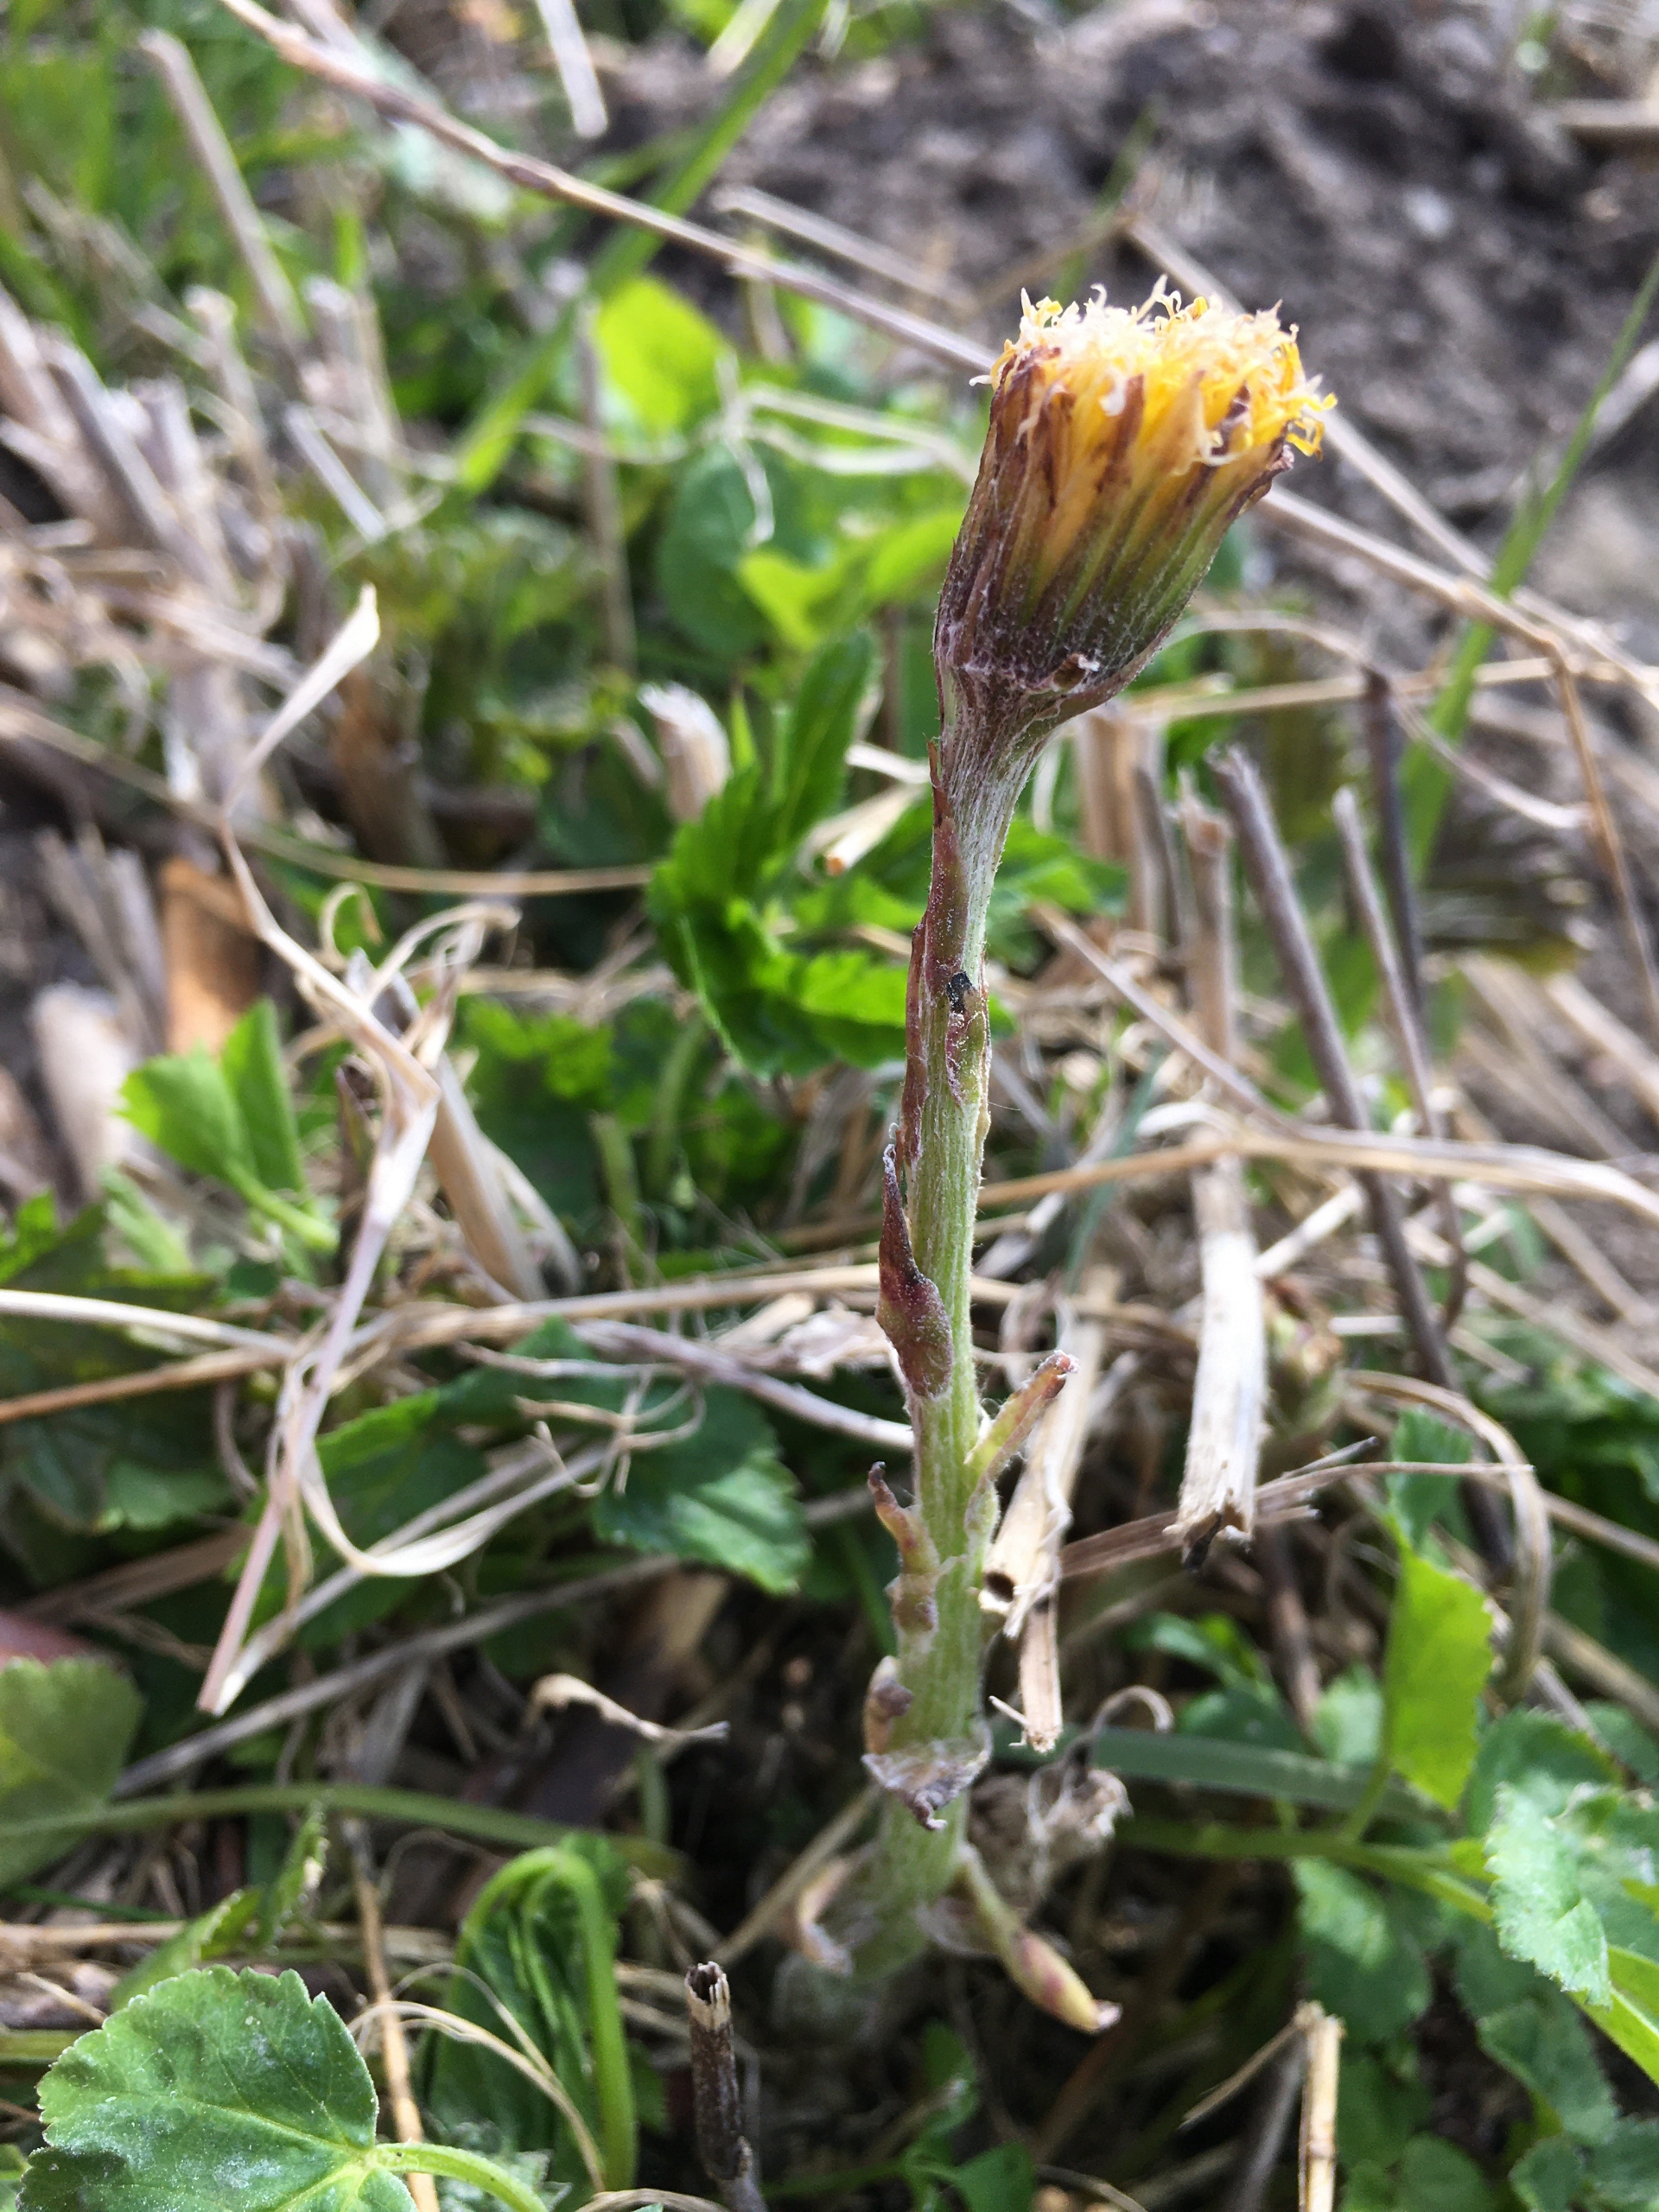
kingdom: Plantae
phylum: Tracheophyta
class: Magnoliopsida
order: Asterales
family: Asteraceae
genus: Tussilago
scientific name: Tussilago farfara
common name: Følfod
